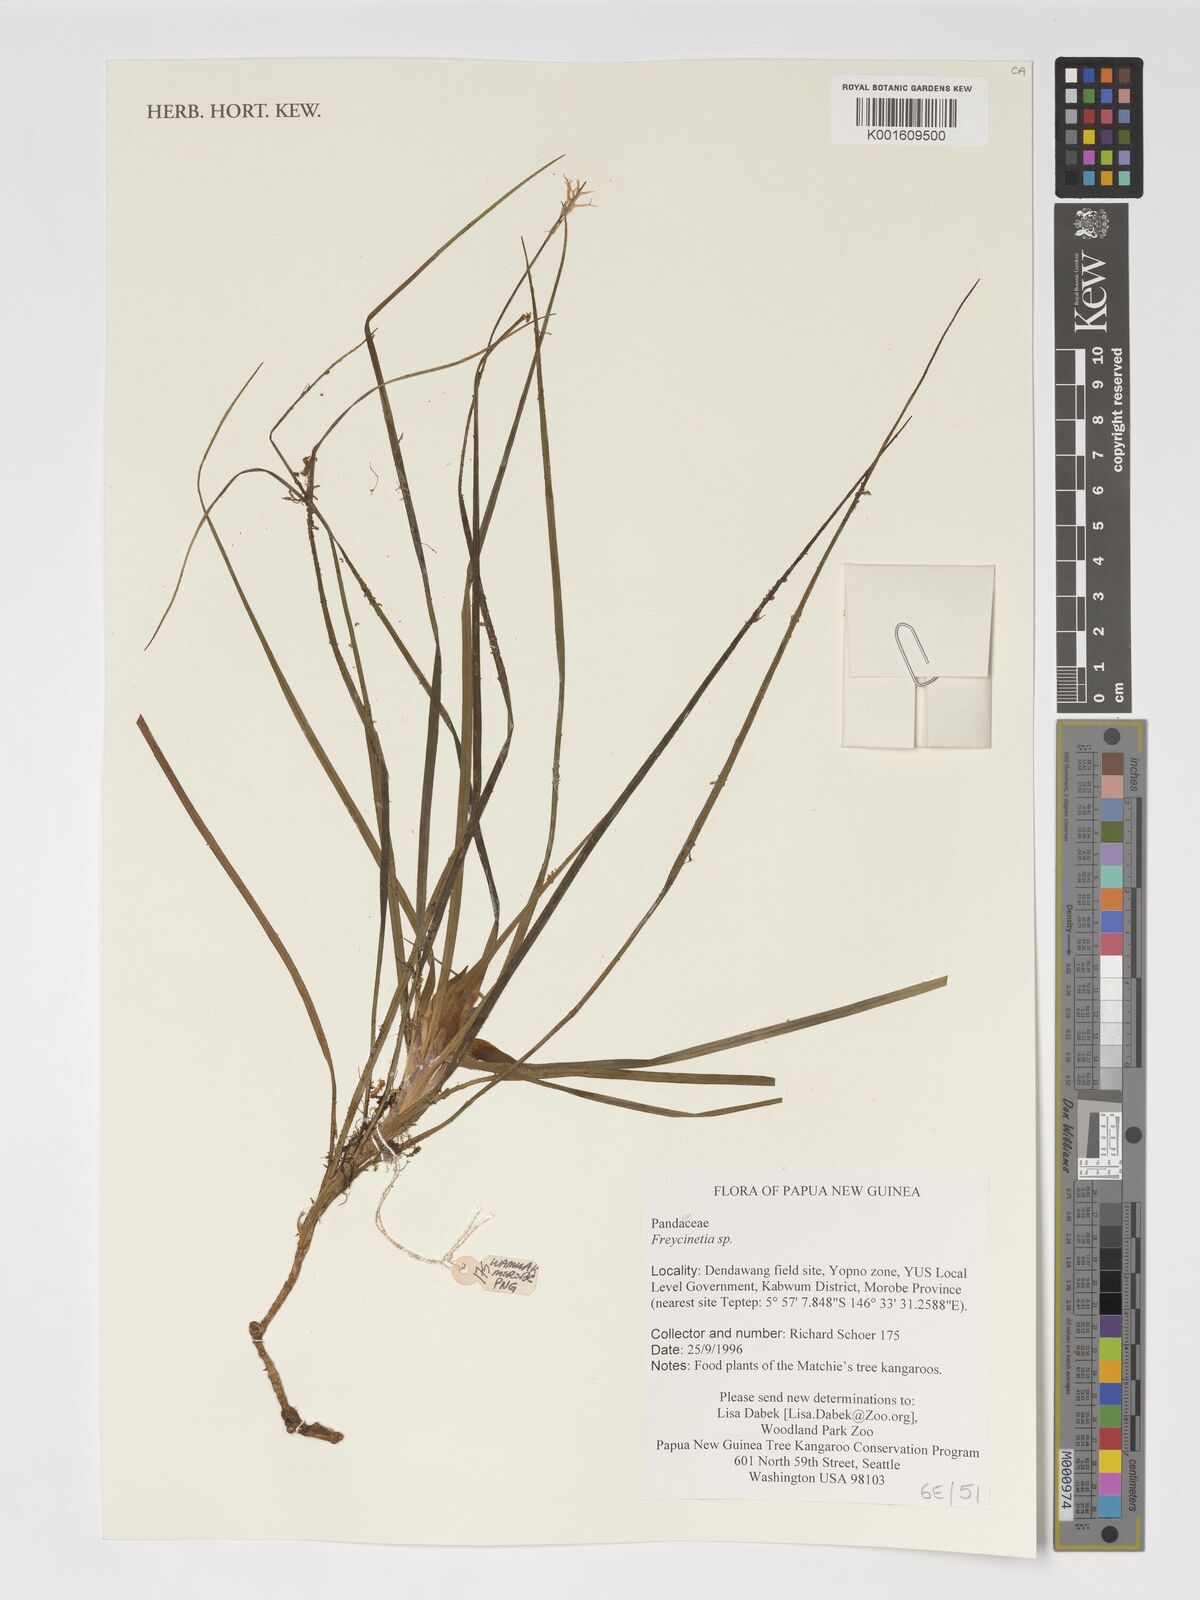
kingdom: Plantae
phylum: Tracheophyta
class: Liliopsida
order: Pandanales
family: Pandanaceae
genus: Freycinetia
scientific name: Freycinetia
